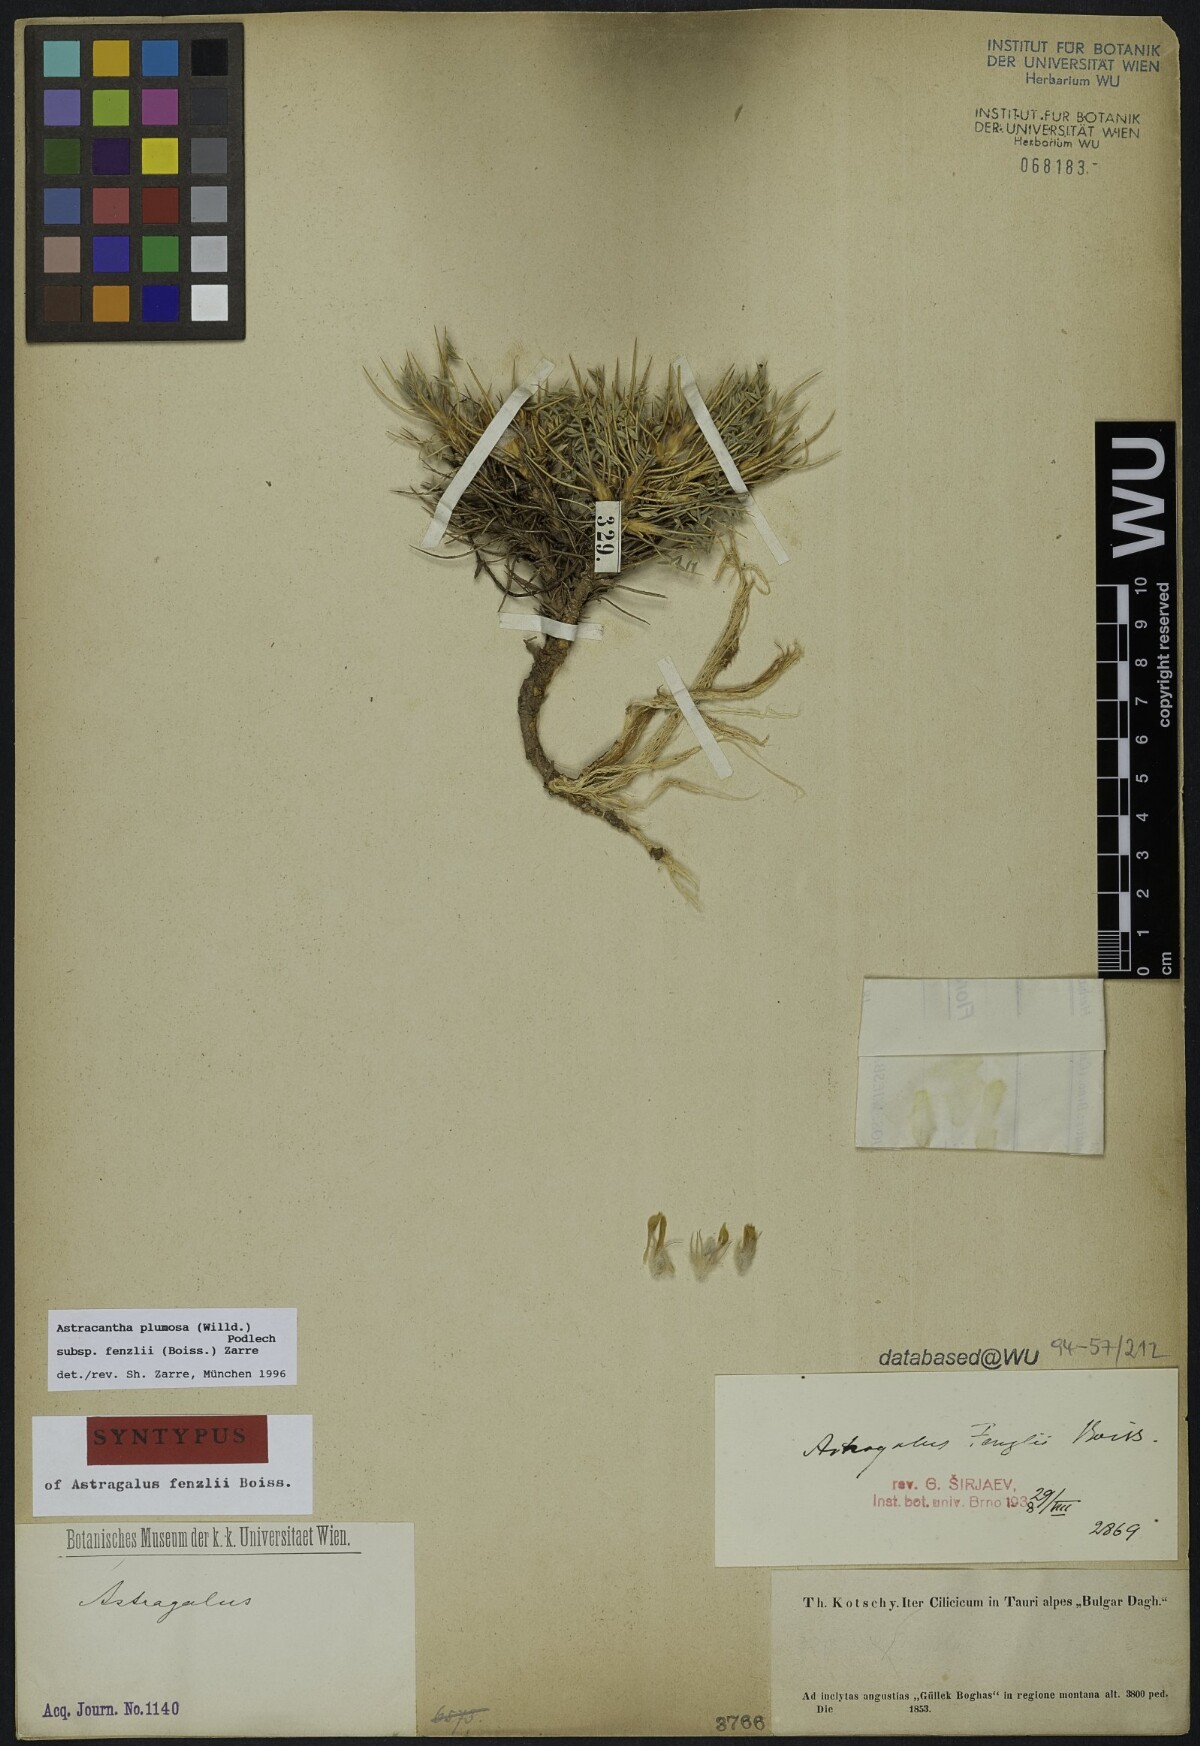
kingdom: Plantae
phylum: Tracheophyta
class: Magnoliopsida
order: Fabales
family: Fabaceae
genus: Astragalus
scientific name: Astragalus plumosus
